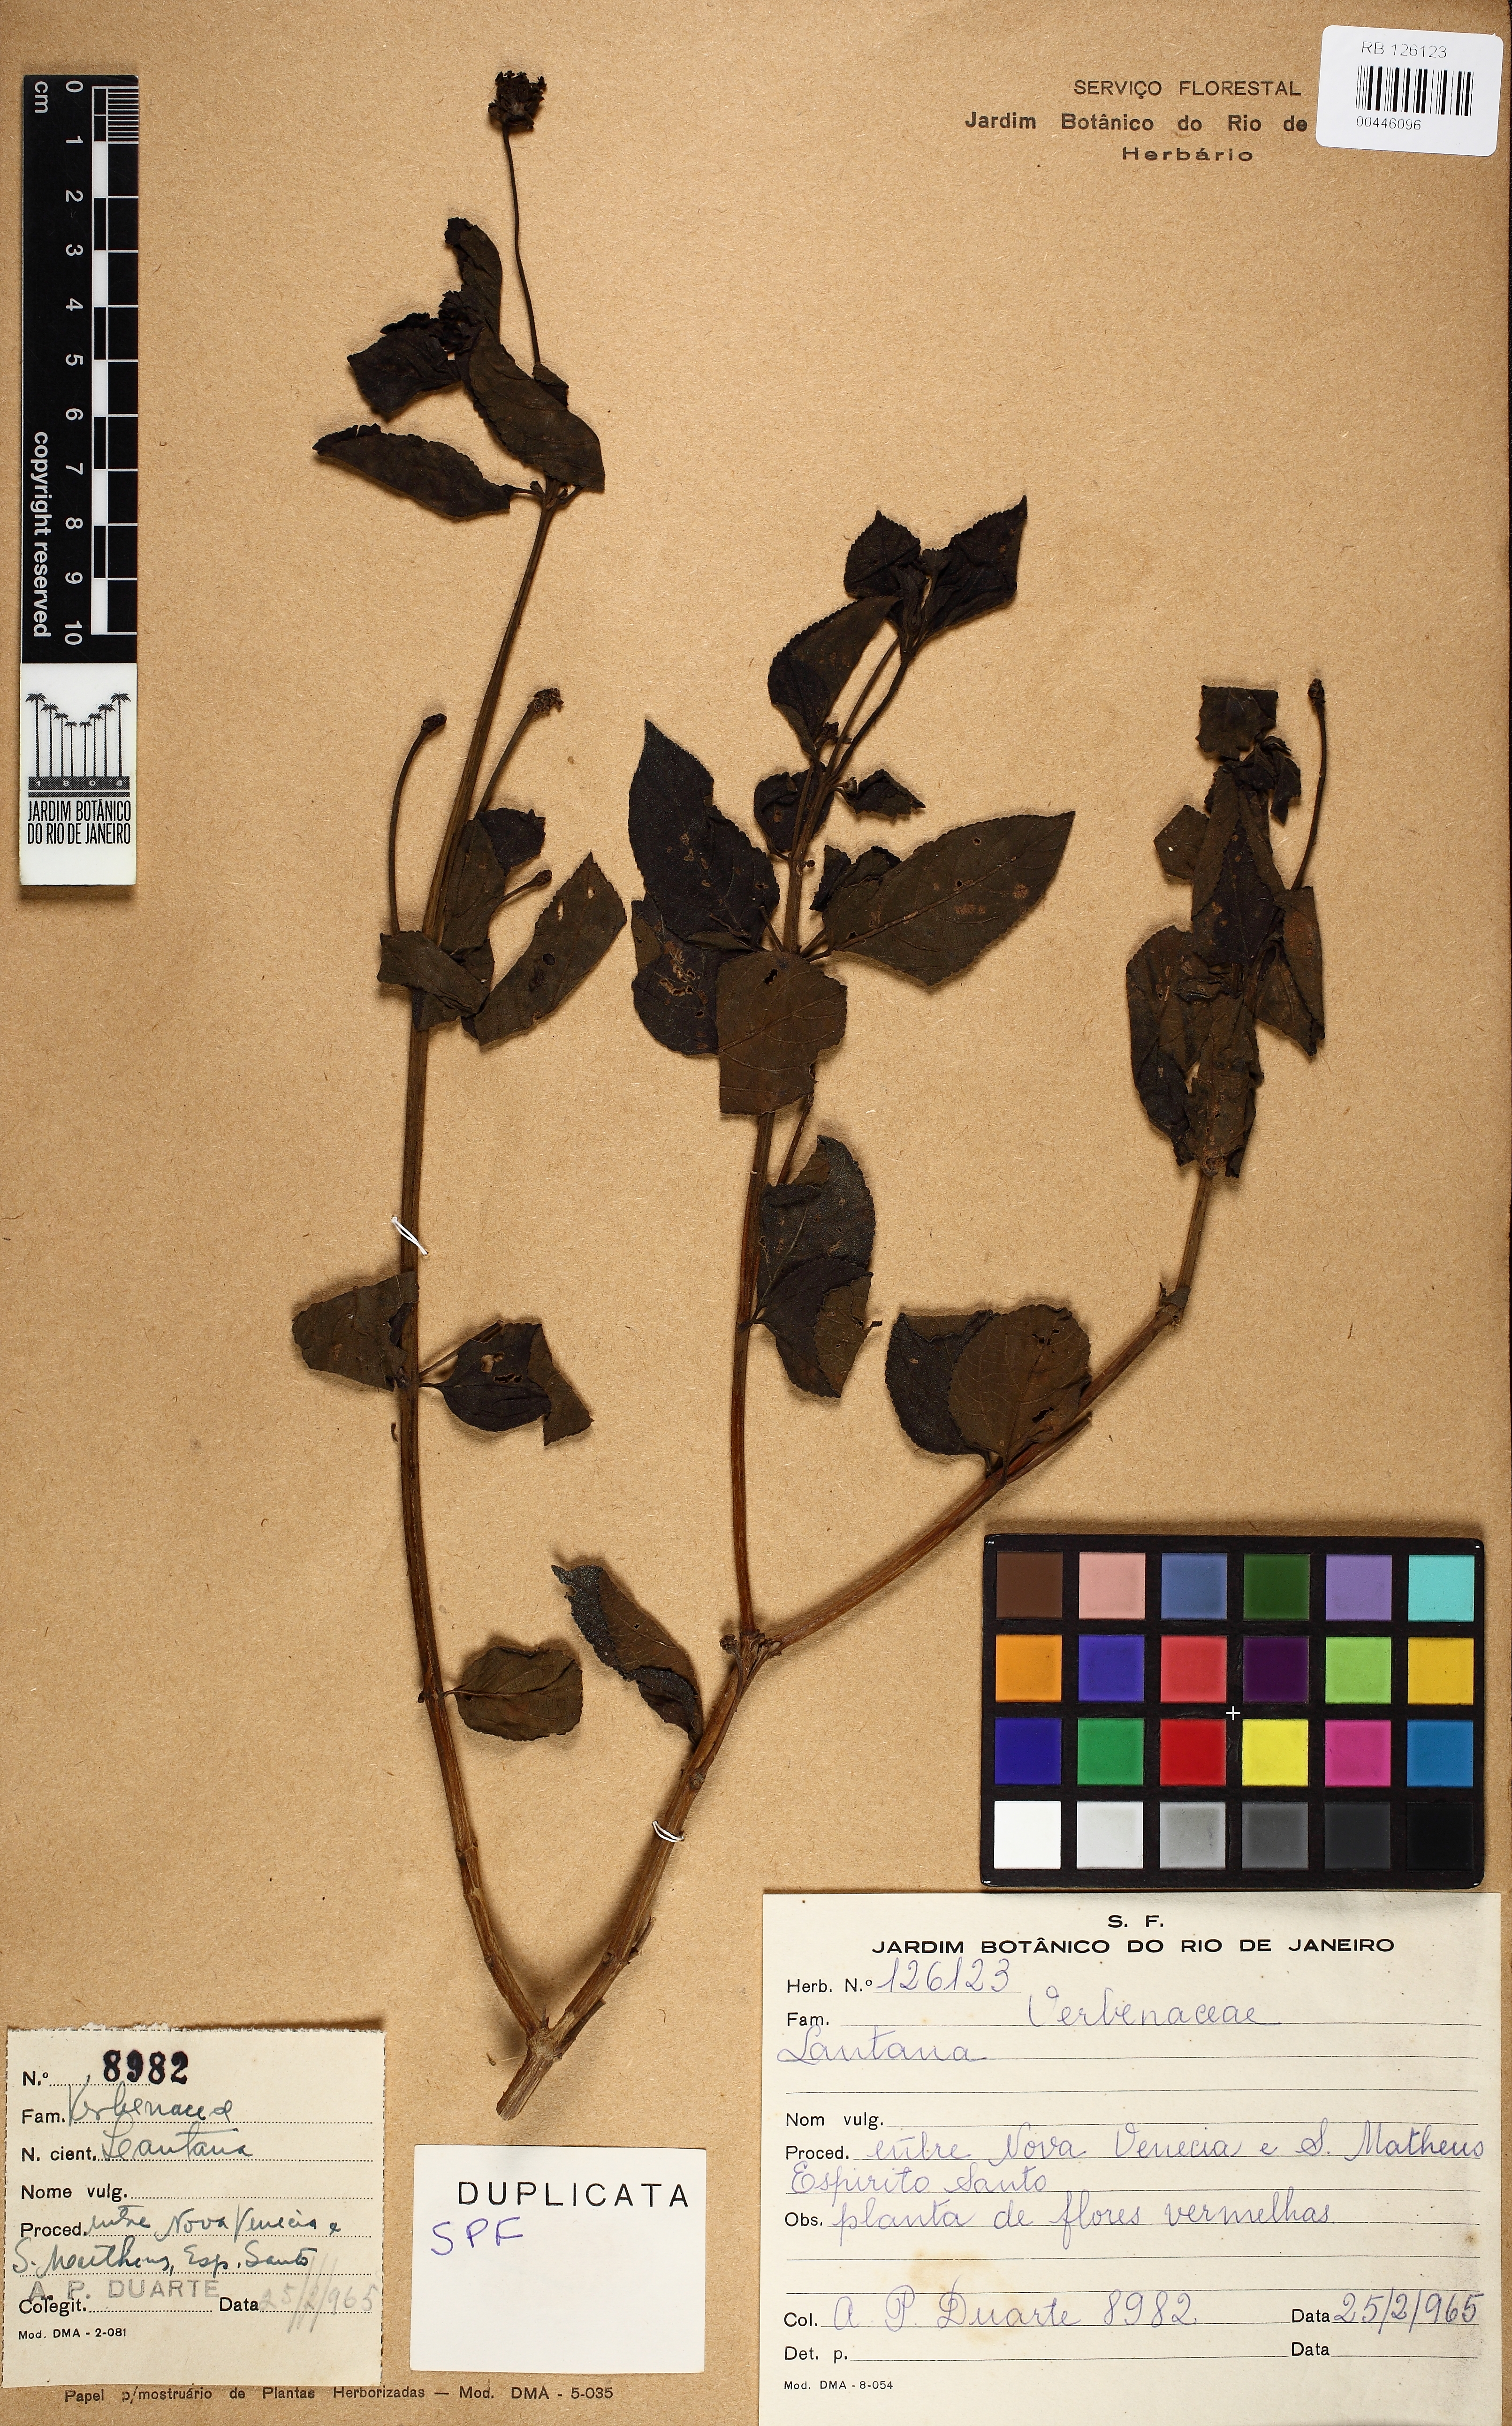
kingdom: Plantae
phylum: Tracheophyta
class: Magnoliopsida
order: Lamiales
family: Verbenaceae
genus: Lantana
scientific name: Lantana
